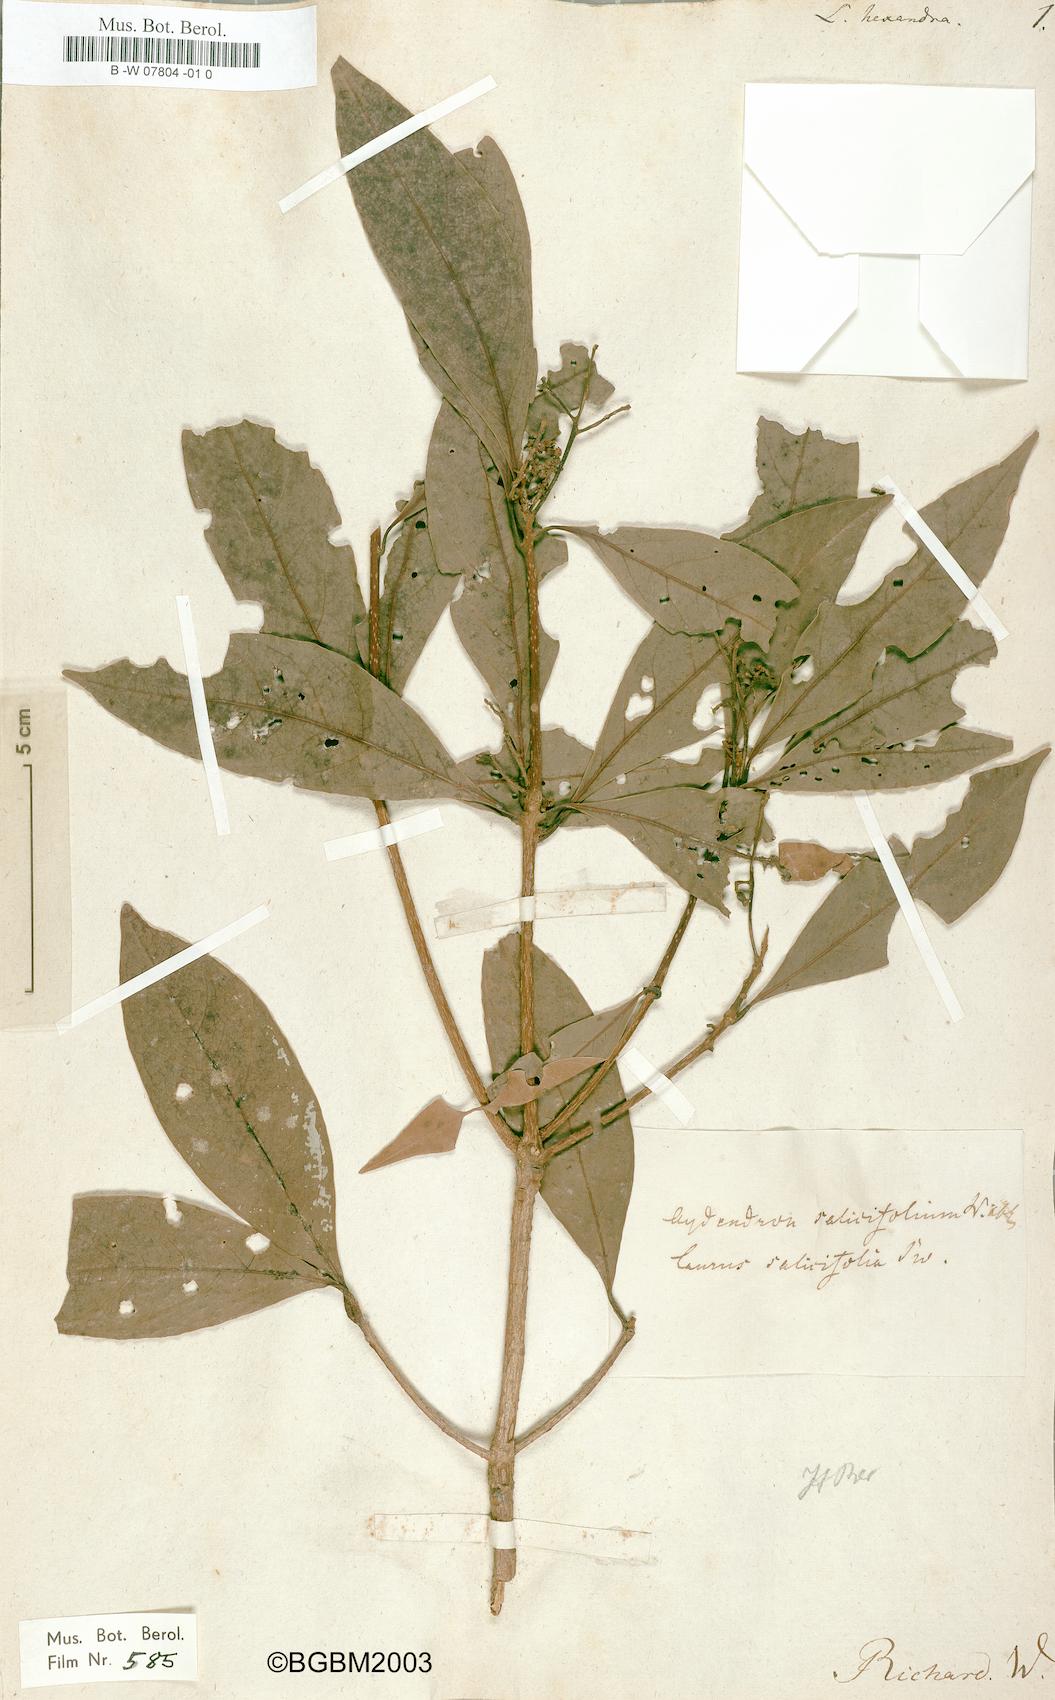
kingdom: Plantae
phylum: Tracheophyta
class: Magnoliopsida
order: Laurales
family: Lauraceae
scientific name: Lauraceae
